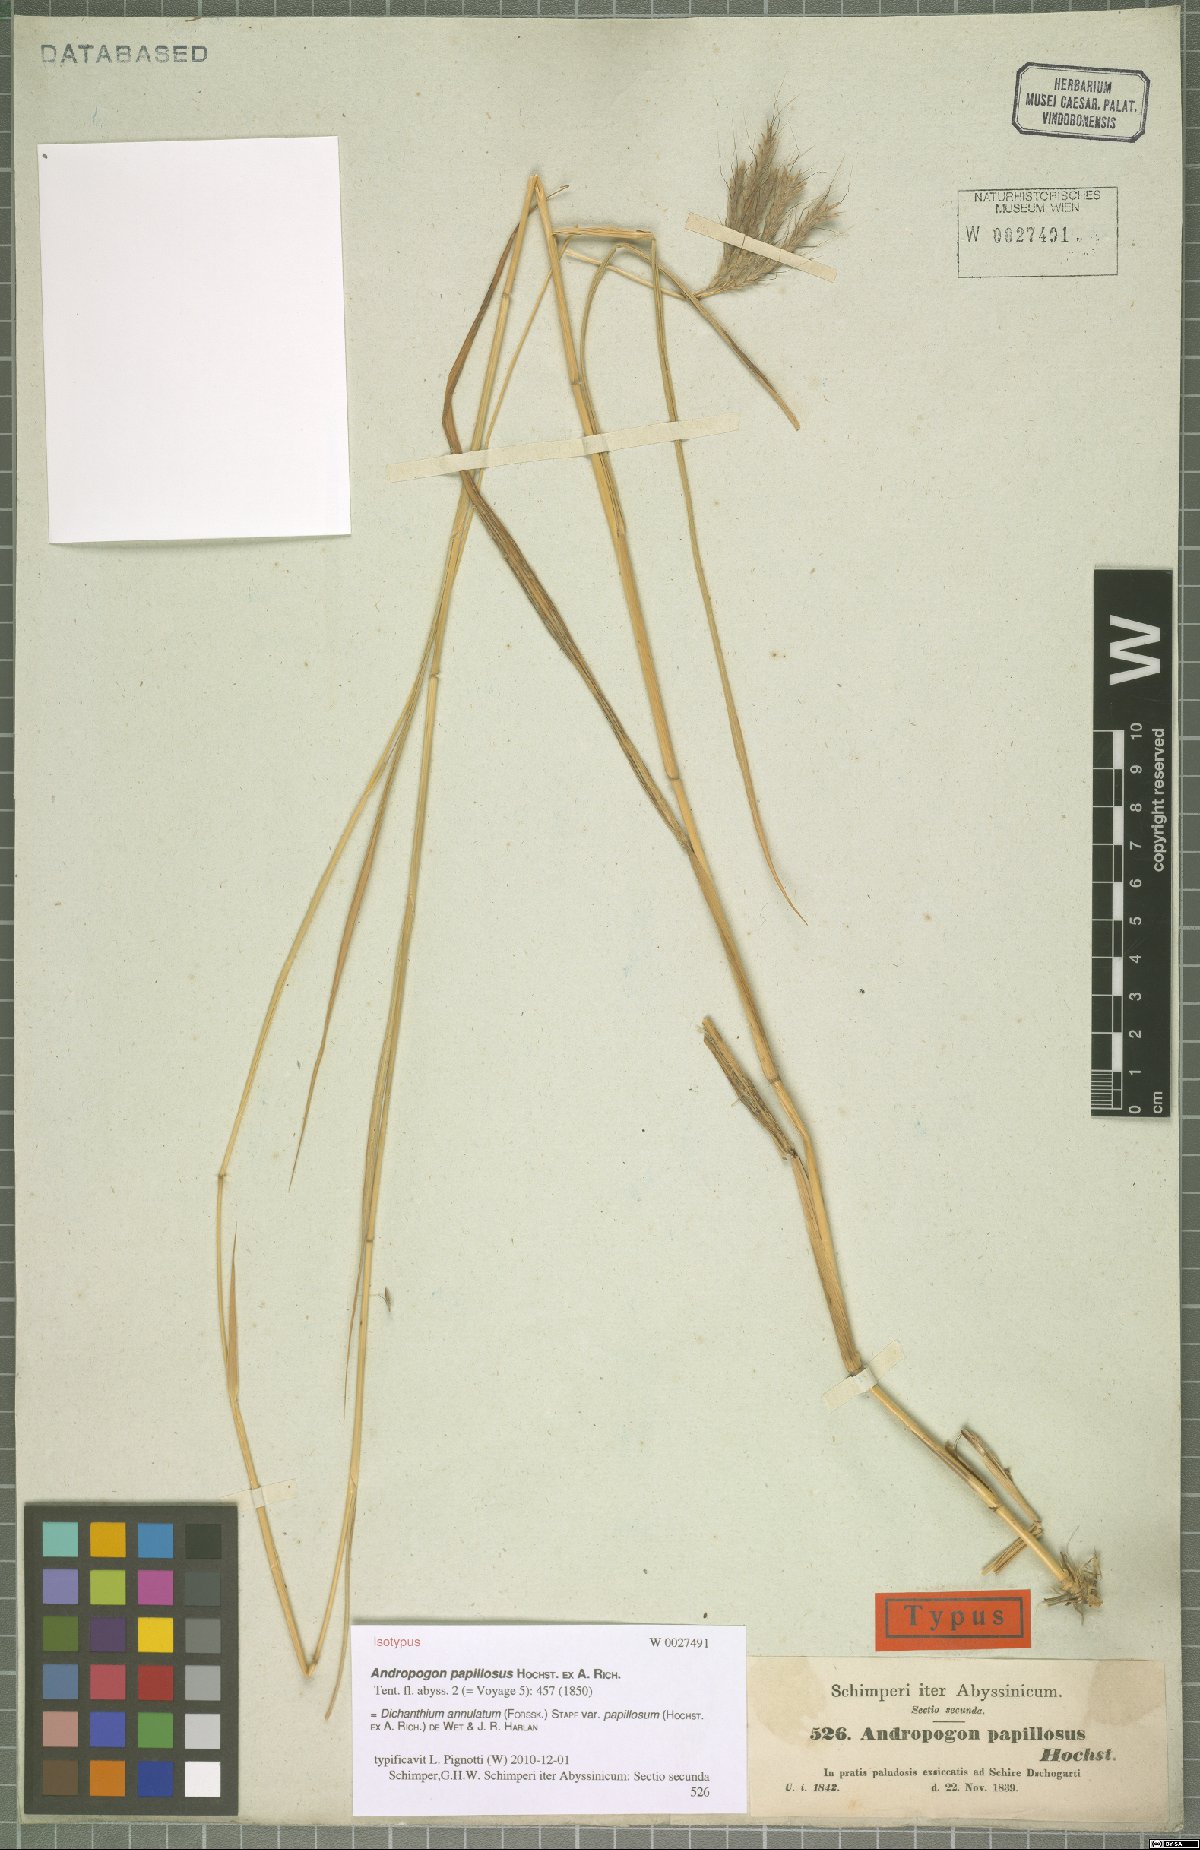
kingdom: Plantae
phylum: Tracheophyta
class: Liliopsida
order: Poales
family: Poaceae
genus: Dichanthium
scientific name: Dichanthium annulatum
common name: Kleberg's bluestem
